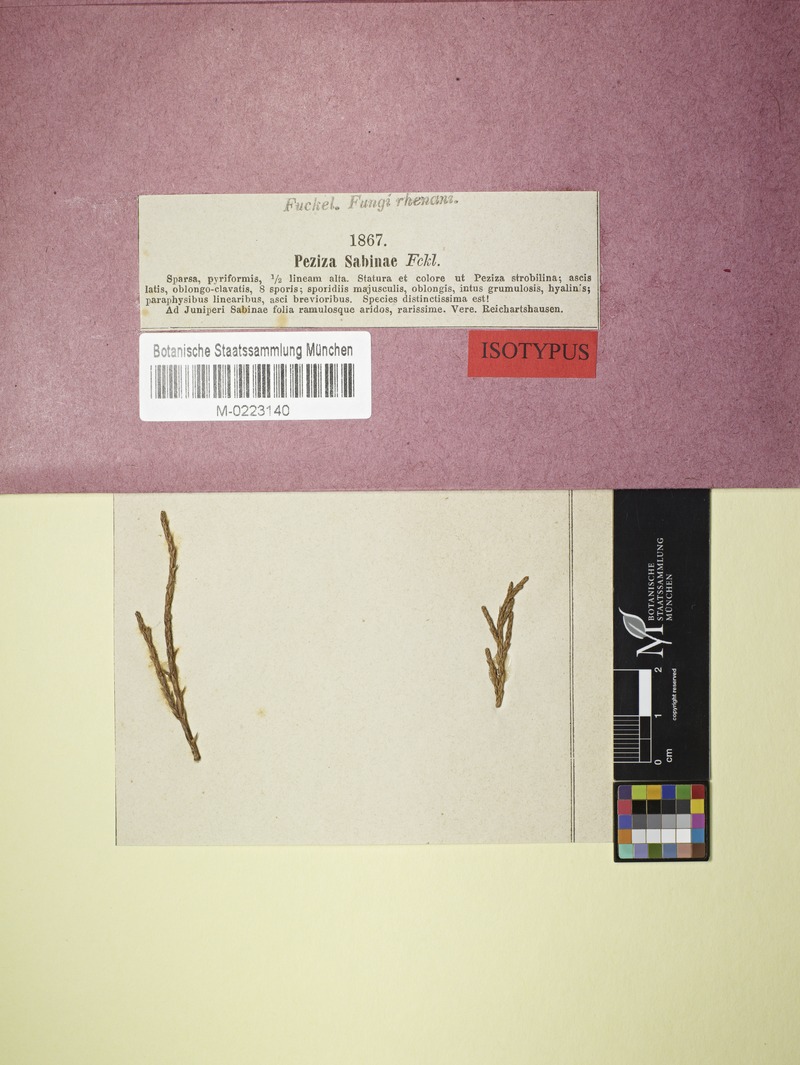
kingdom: Fungi
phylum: Ascomycota
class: Leotiomycetes
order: Helotiales
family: Gelatinodiscaceae
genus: Chloroscypha
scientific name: Chloroscypha sabinae
